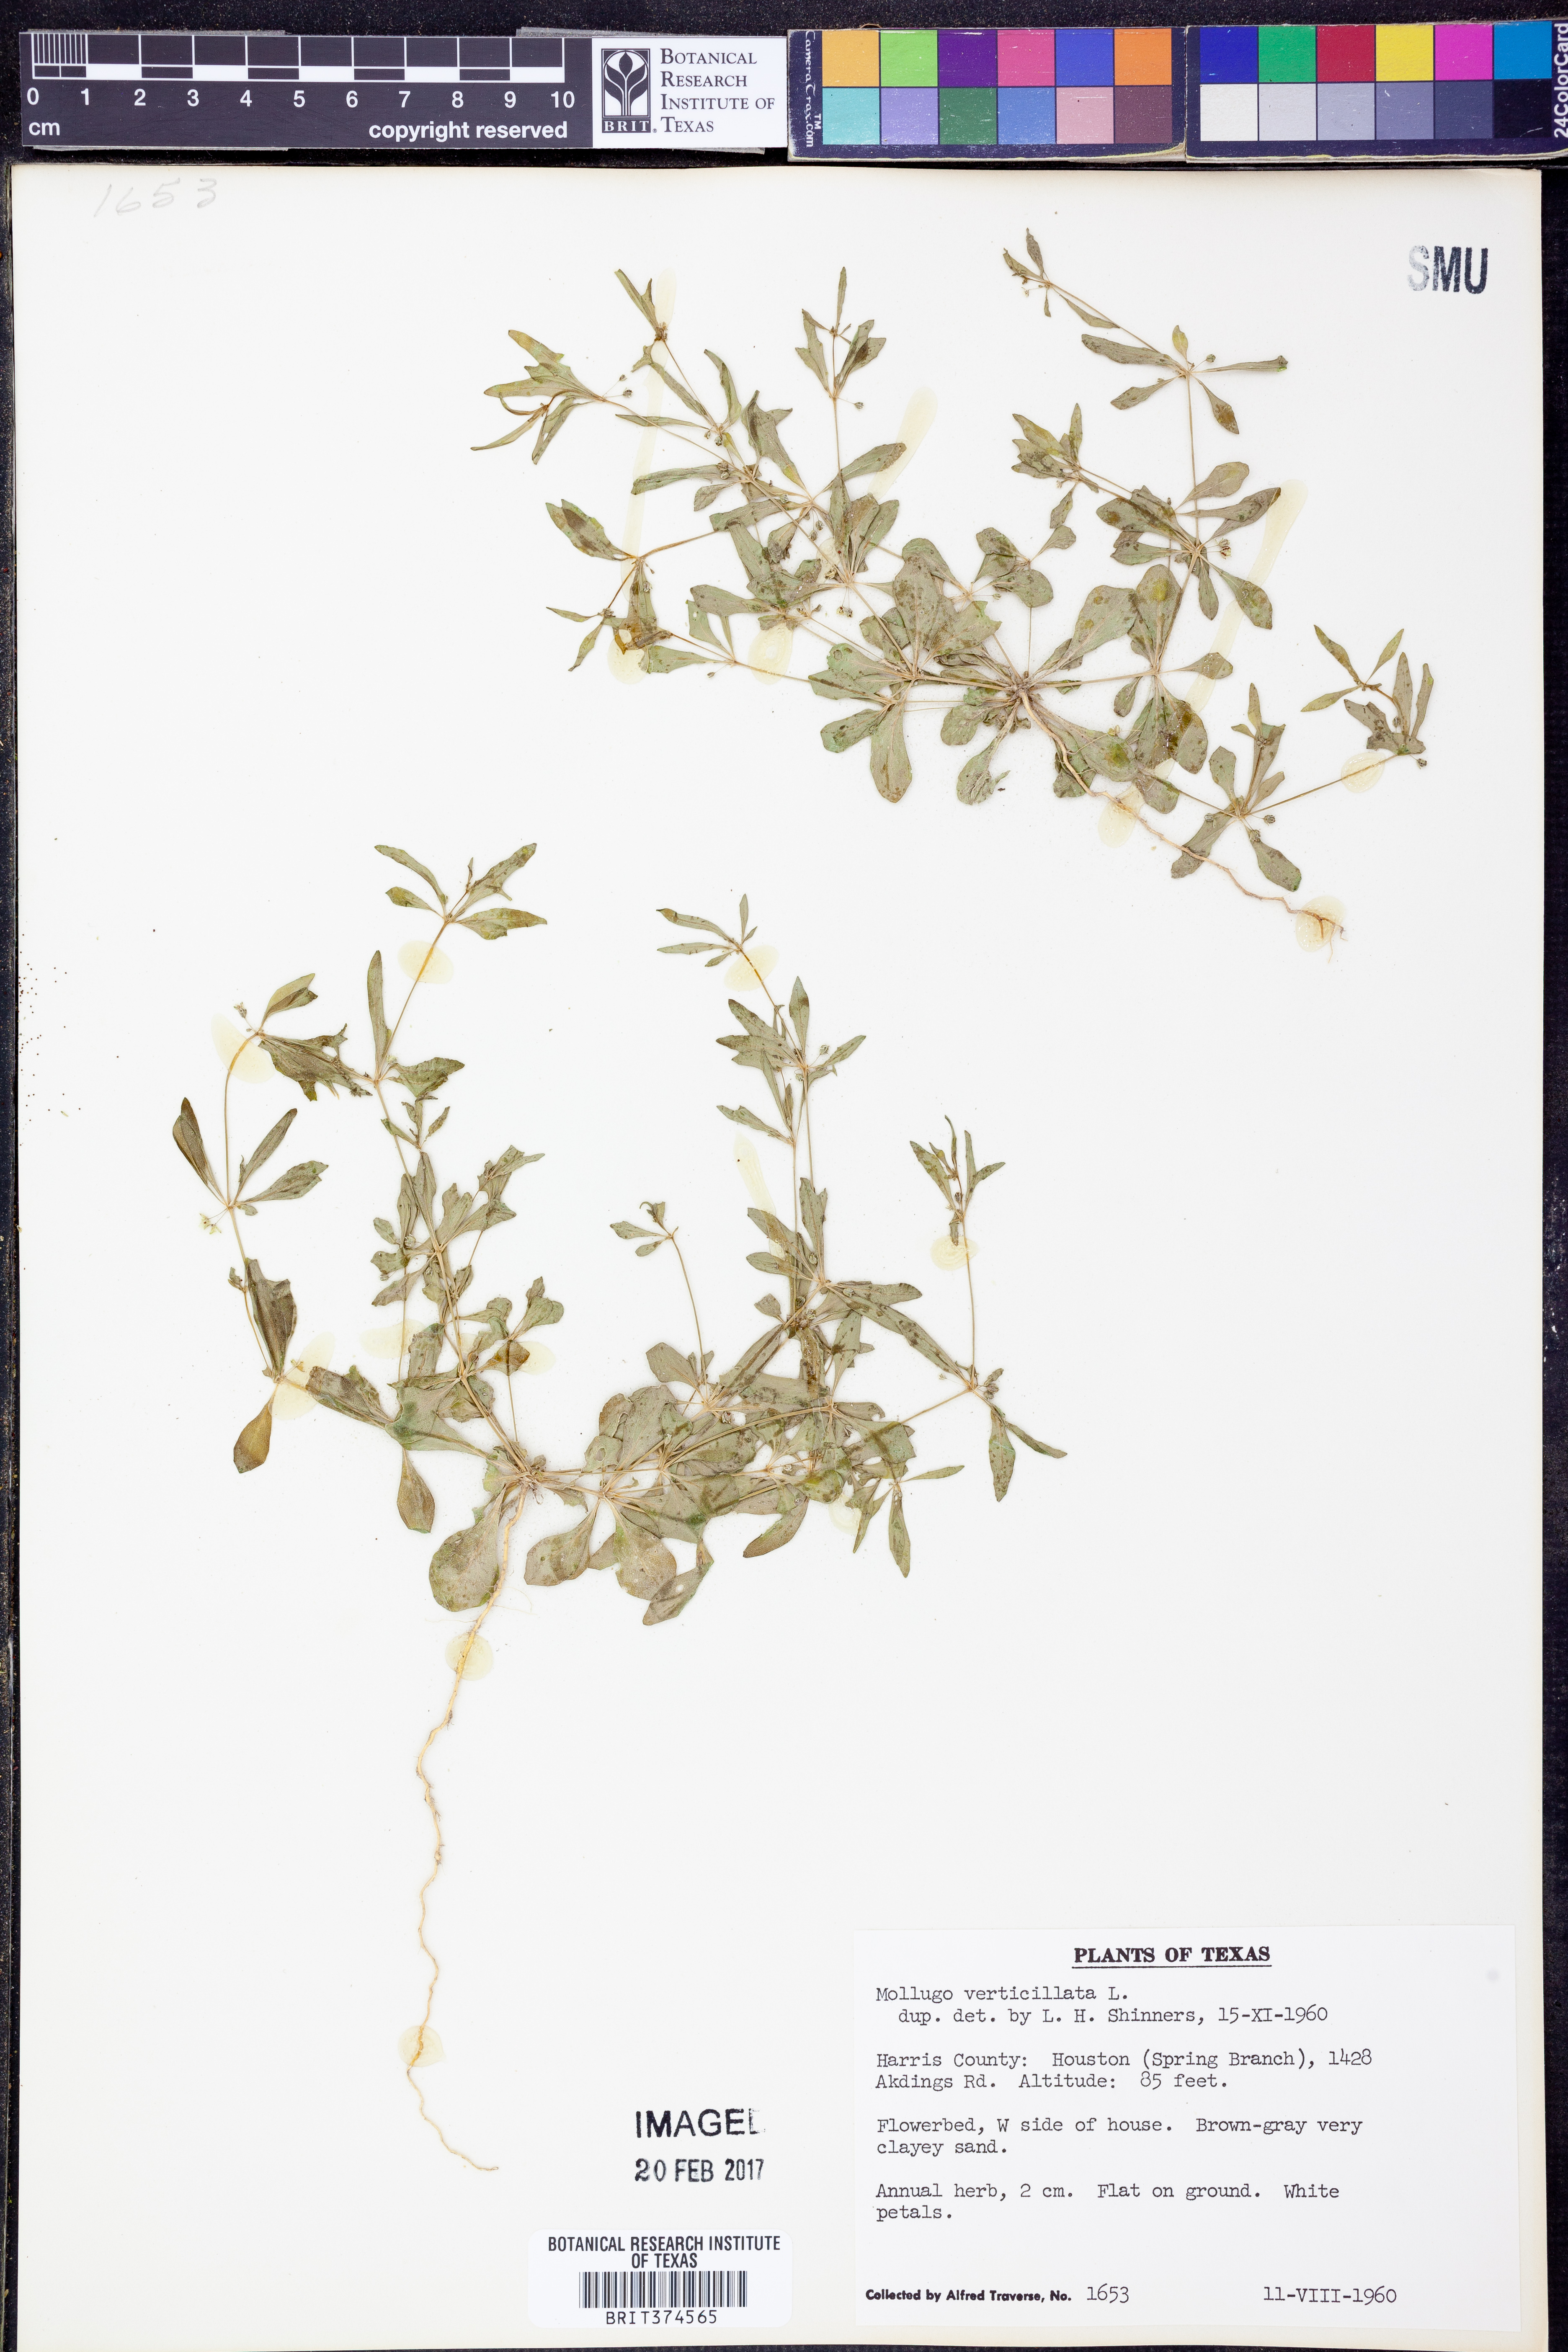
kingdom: Plantae
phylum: Tracheophyta
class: Magnoliopsida
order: Caryophyllales
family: Molluginaceae
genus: Mollugo
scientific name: Mollugo verticillata
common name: Green carpetweed
